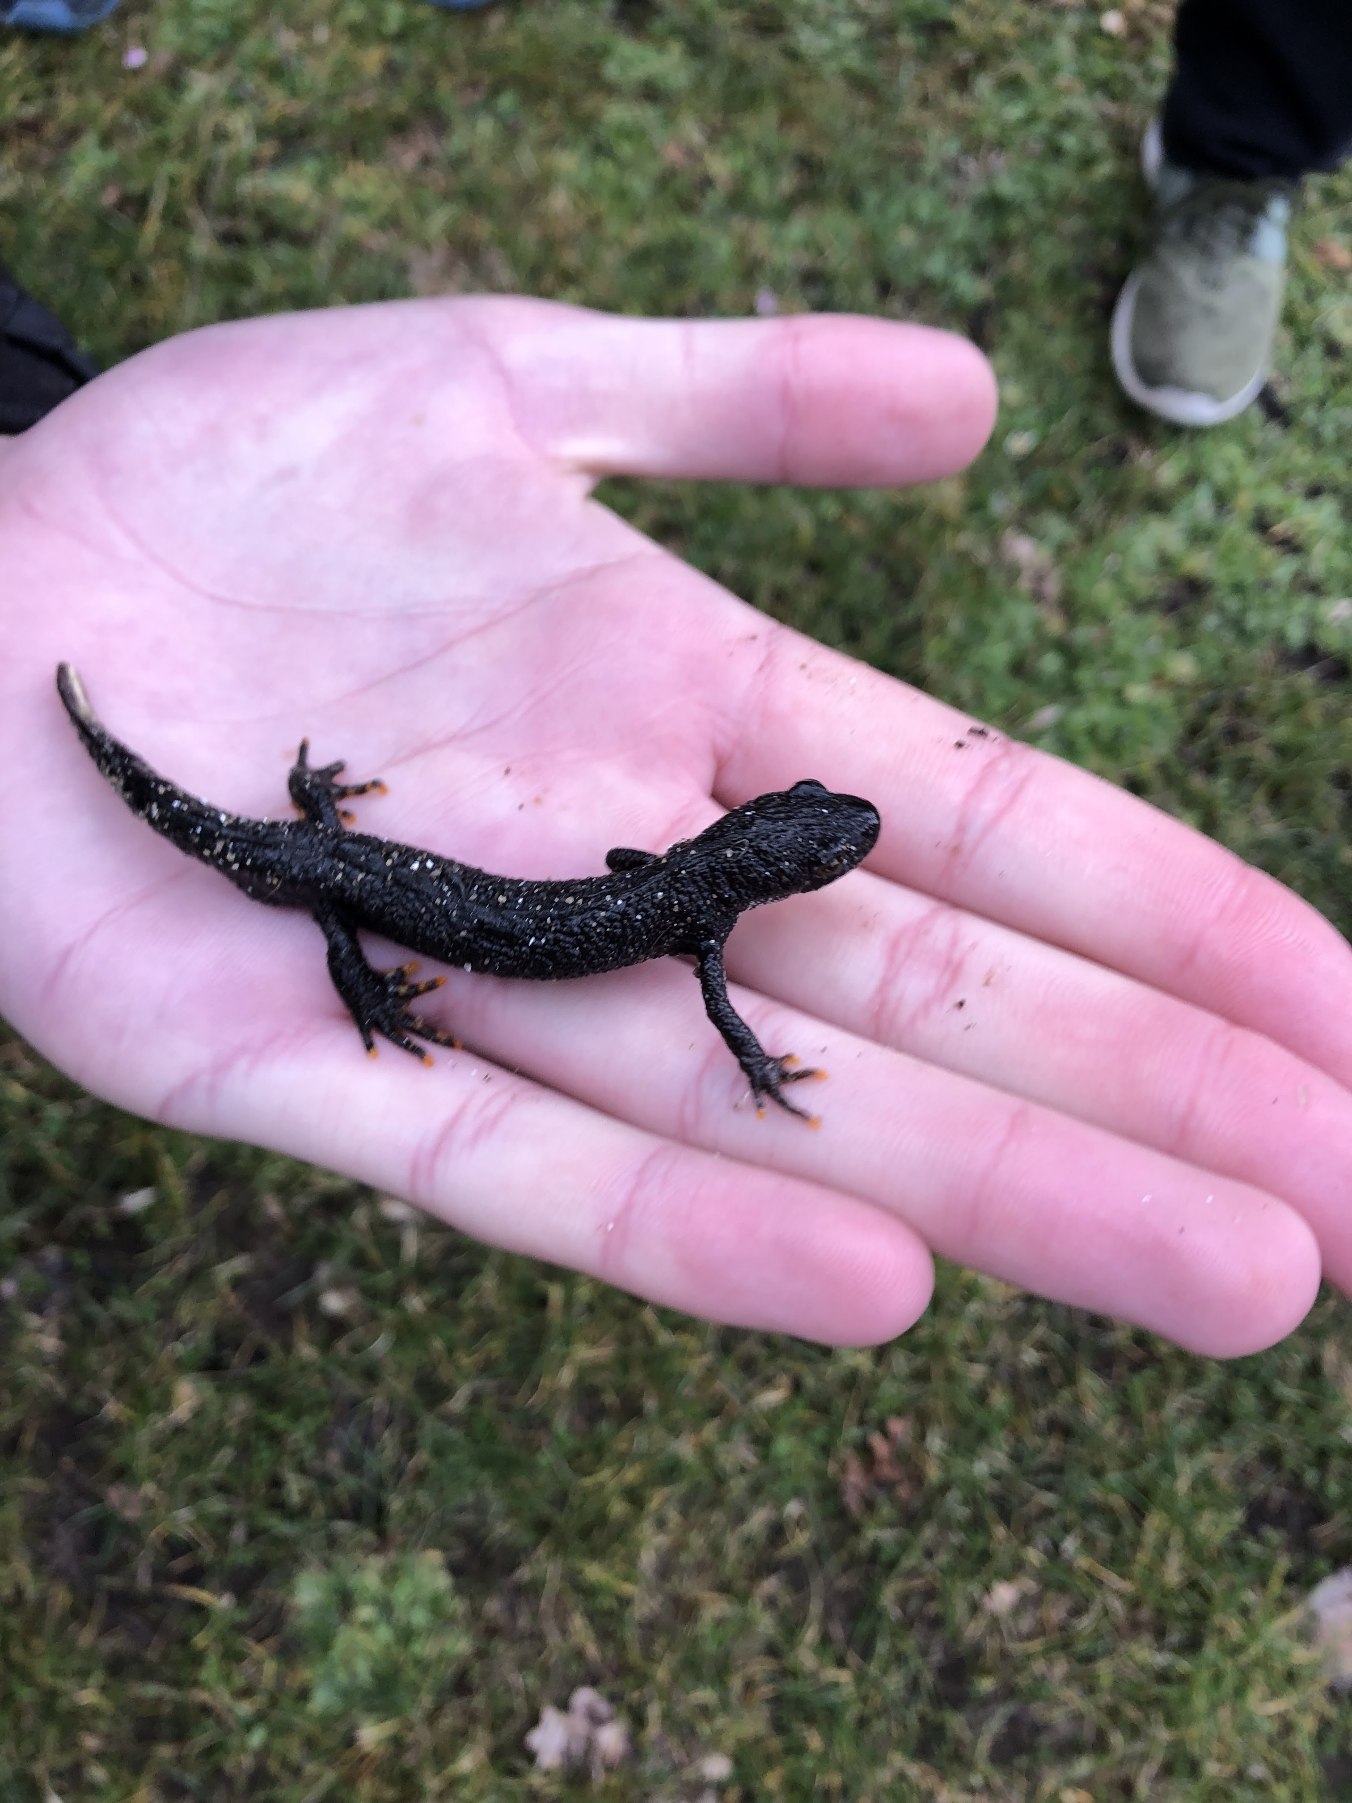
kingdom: Animalia
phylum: Chordata
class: Amphibia
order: Caudata
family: Salamandridae
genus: Triturus
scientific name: Triturus cristatus
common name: Stor vandsalamander
